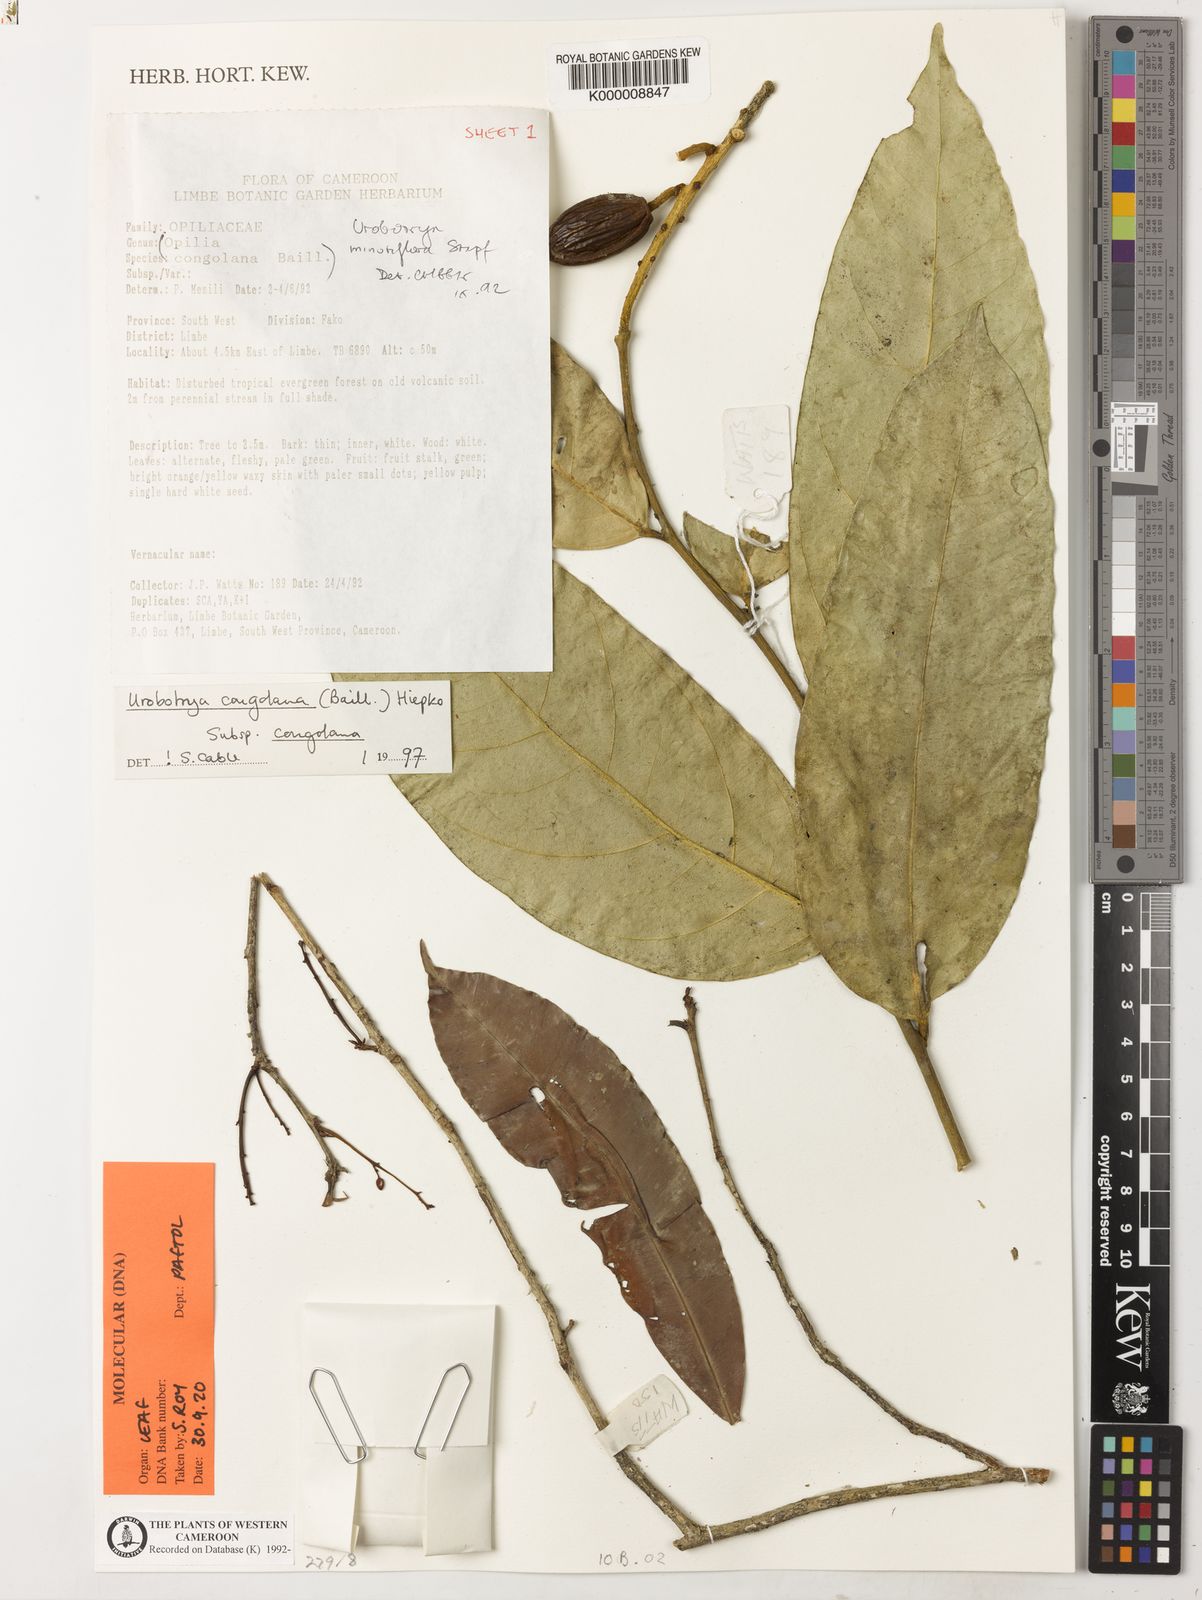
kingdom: Plantae
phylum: Tracheophyta
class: Magnoliopsida
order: Santalales
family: Opiliaceae
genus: Urobotrya
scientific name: Urobotrya congolana
